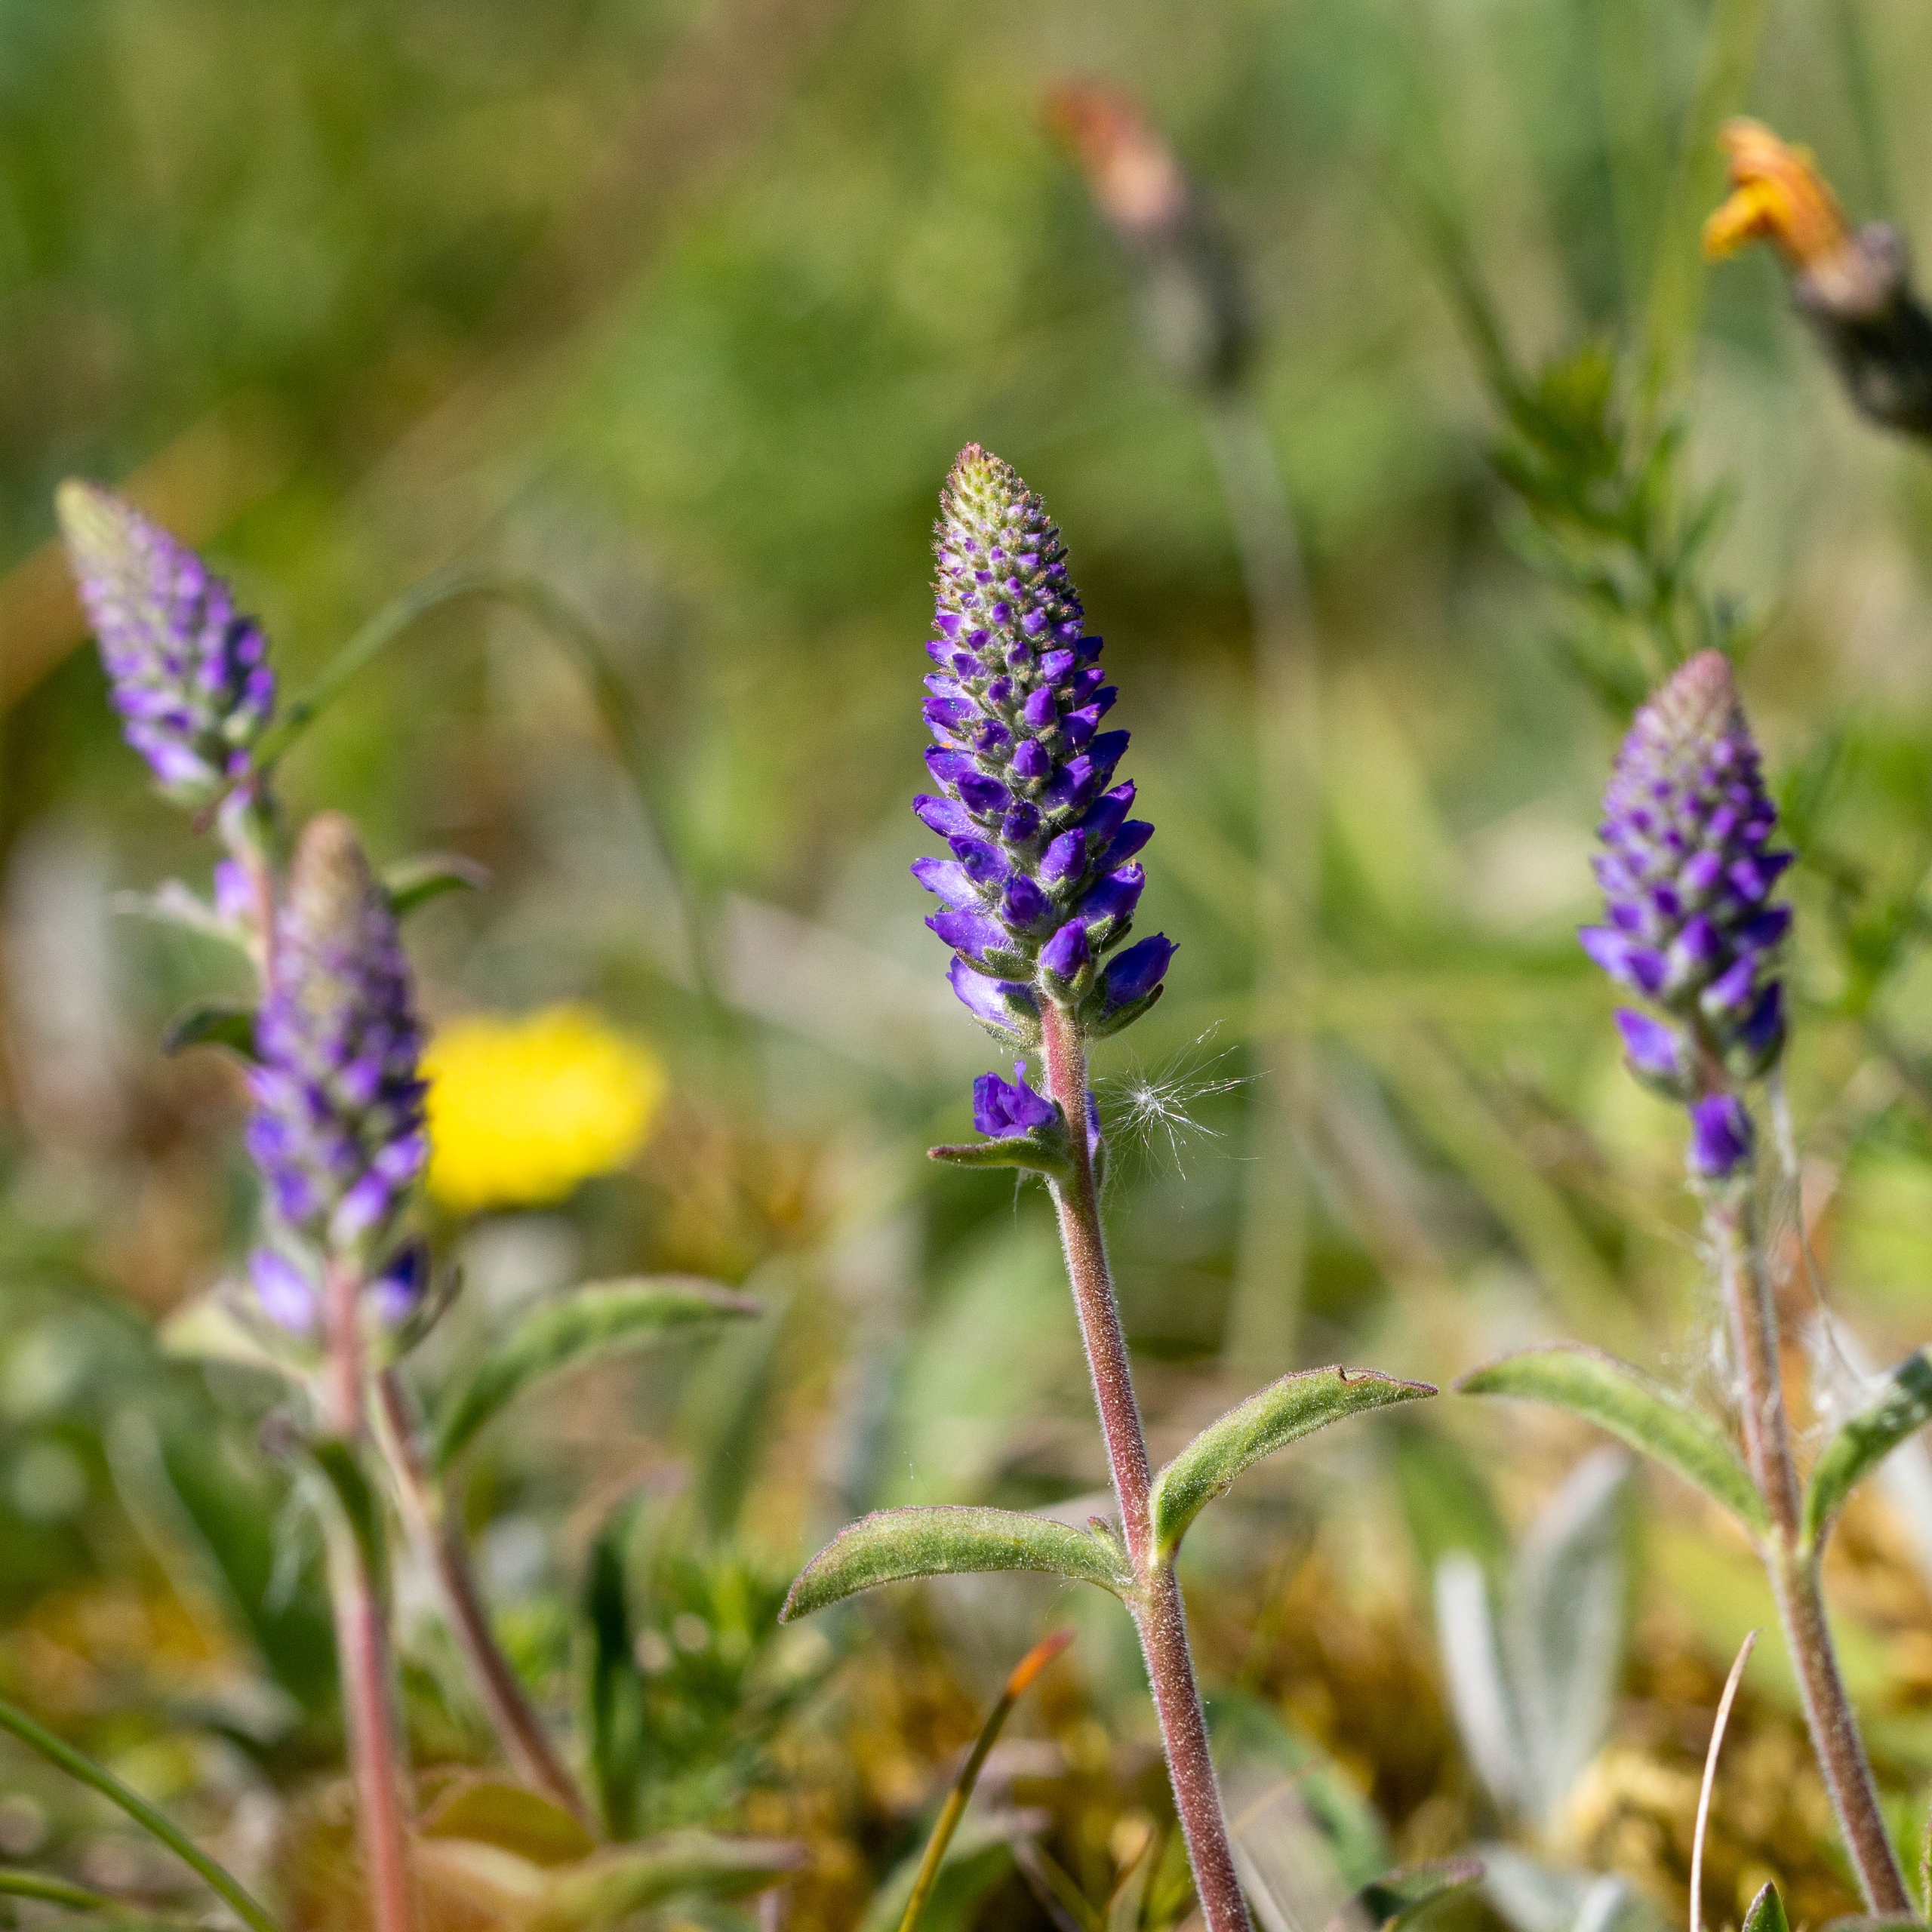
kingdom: Plantae
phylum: Tracheophyta
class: Magnoliopsida
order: Lamiales
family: Plantaginaceae
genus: Veronica
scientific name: Veronica spicata
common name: Aks-ærenpris
